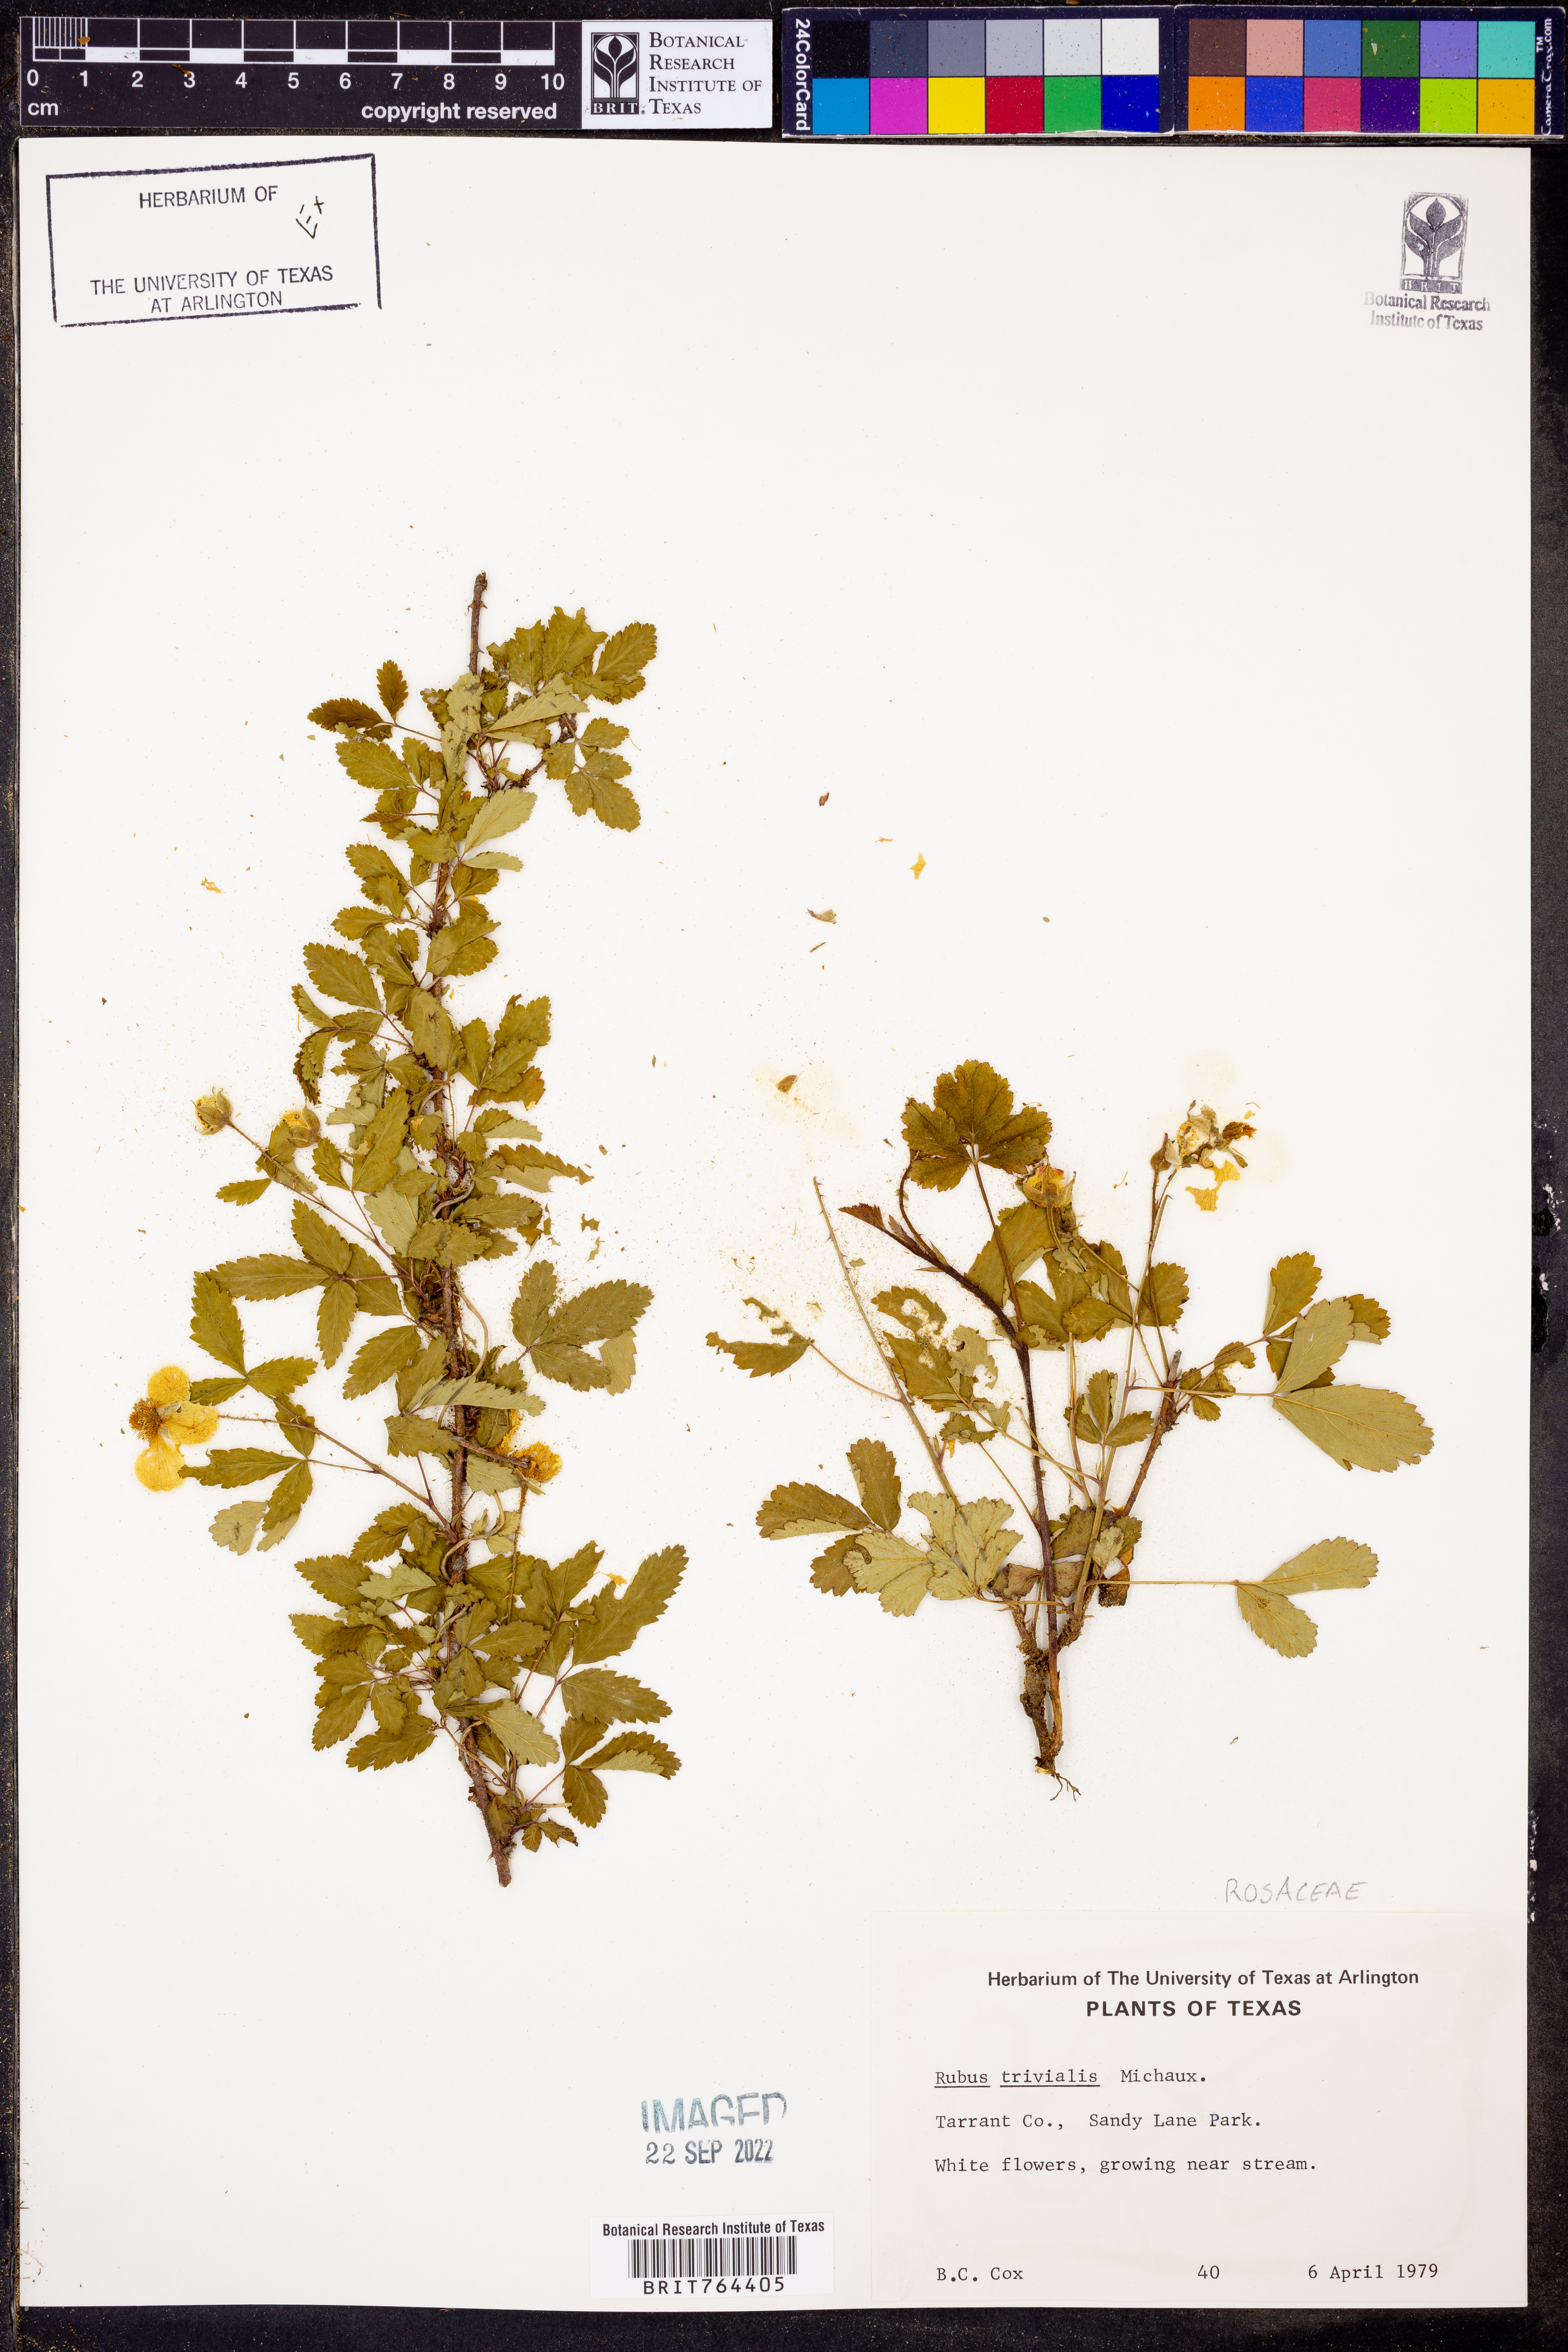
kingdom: Plantae
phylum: Tracheophyta
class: Magnoliopsida
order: Rosales
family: Rosaceae
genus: Rubus
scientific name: Rubus trivialis
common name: Southern dewberry
